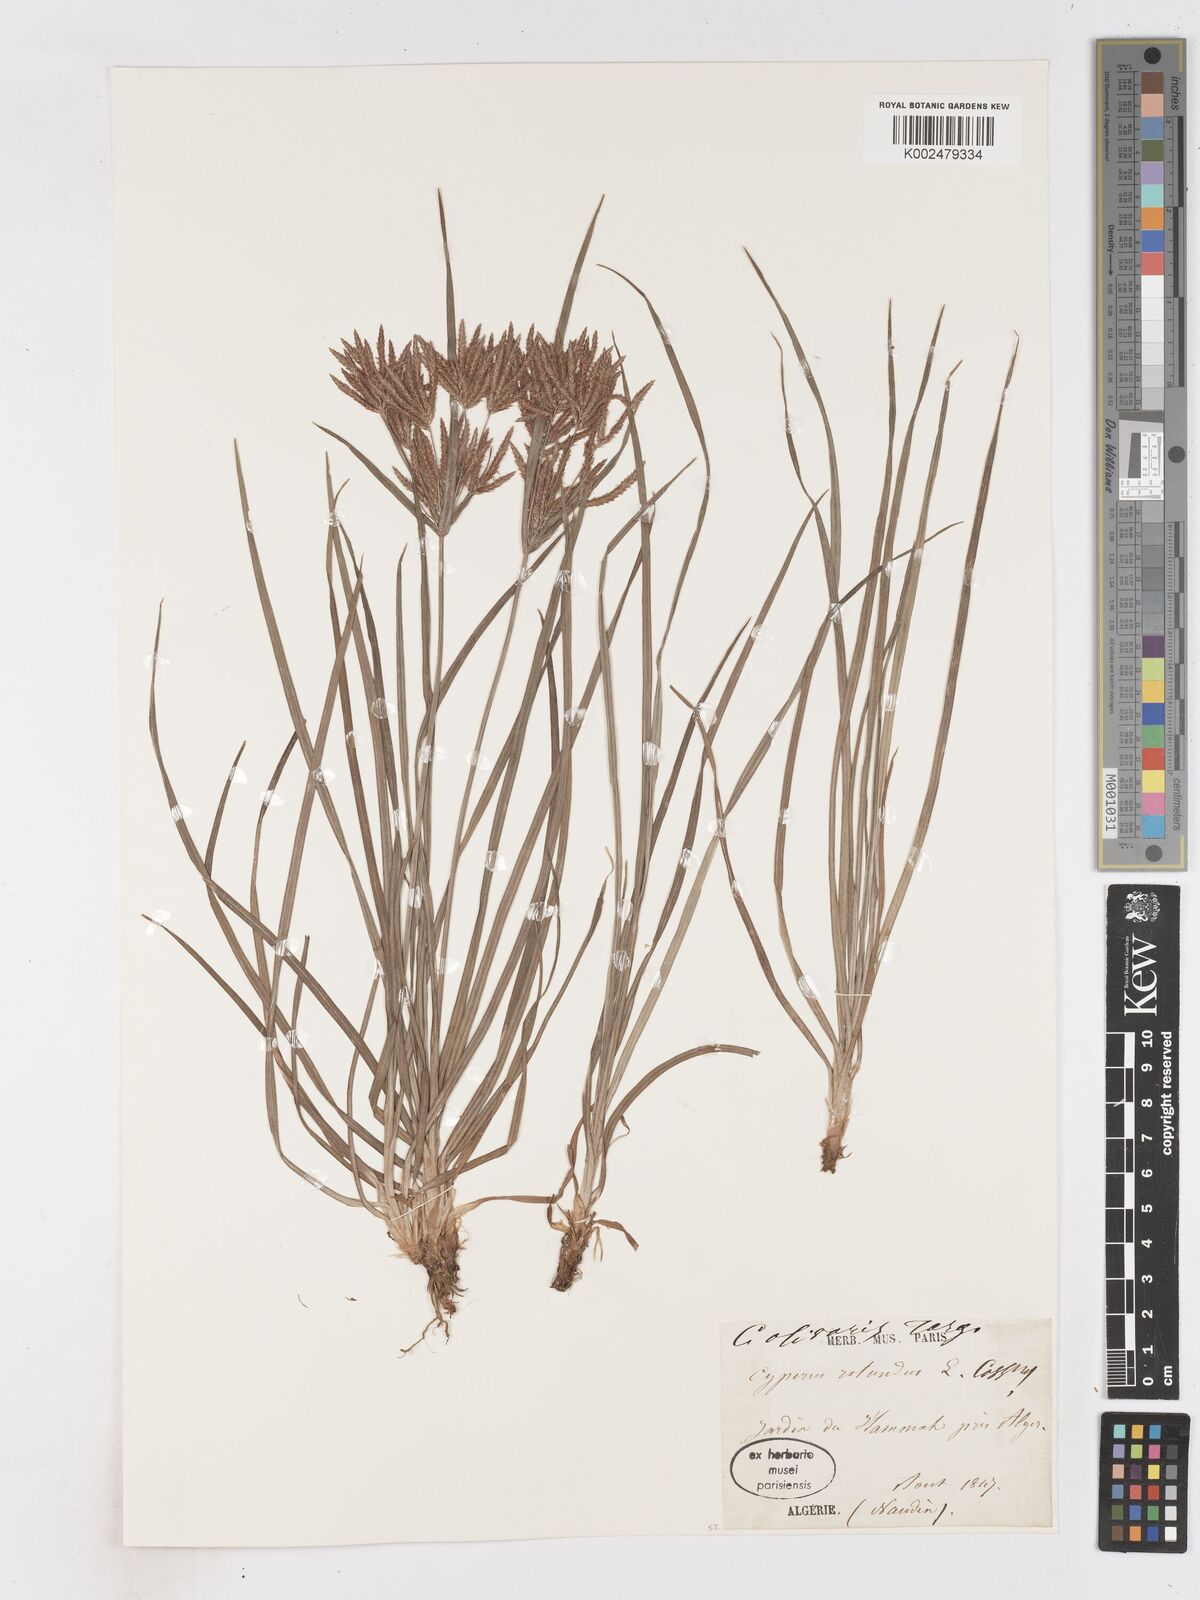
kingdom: Plantae
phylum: Tracheophyta
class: Liliopsida
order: Poales
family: Cyperaceae
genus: Cyperus
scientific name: Cyperus rotundus
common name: Nutgrass
